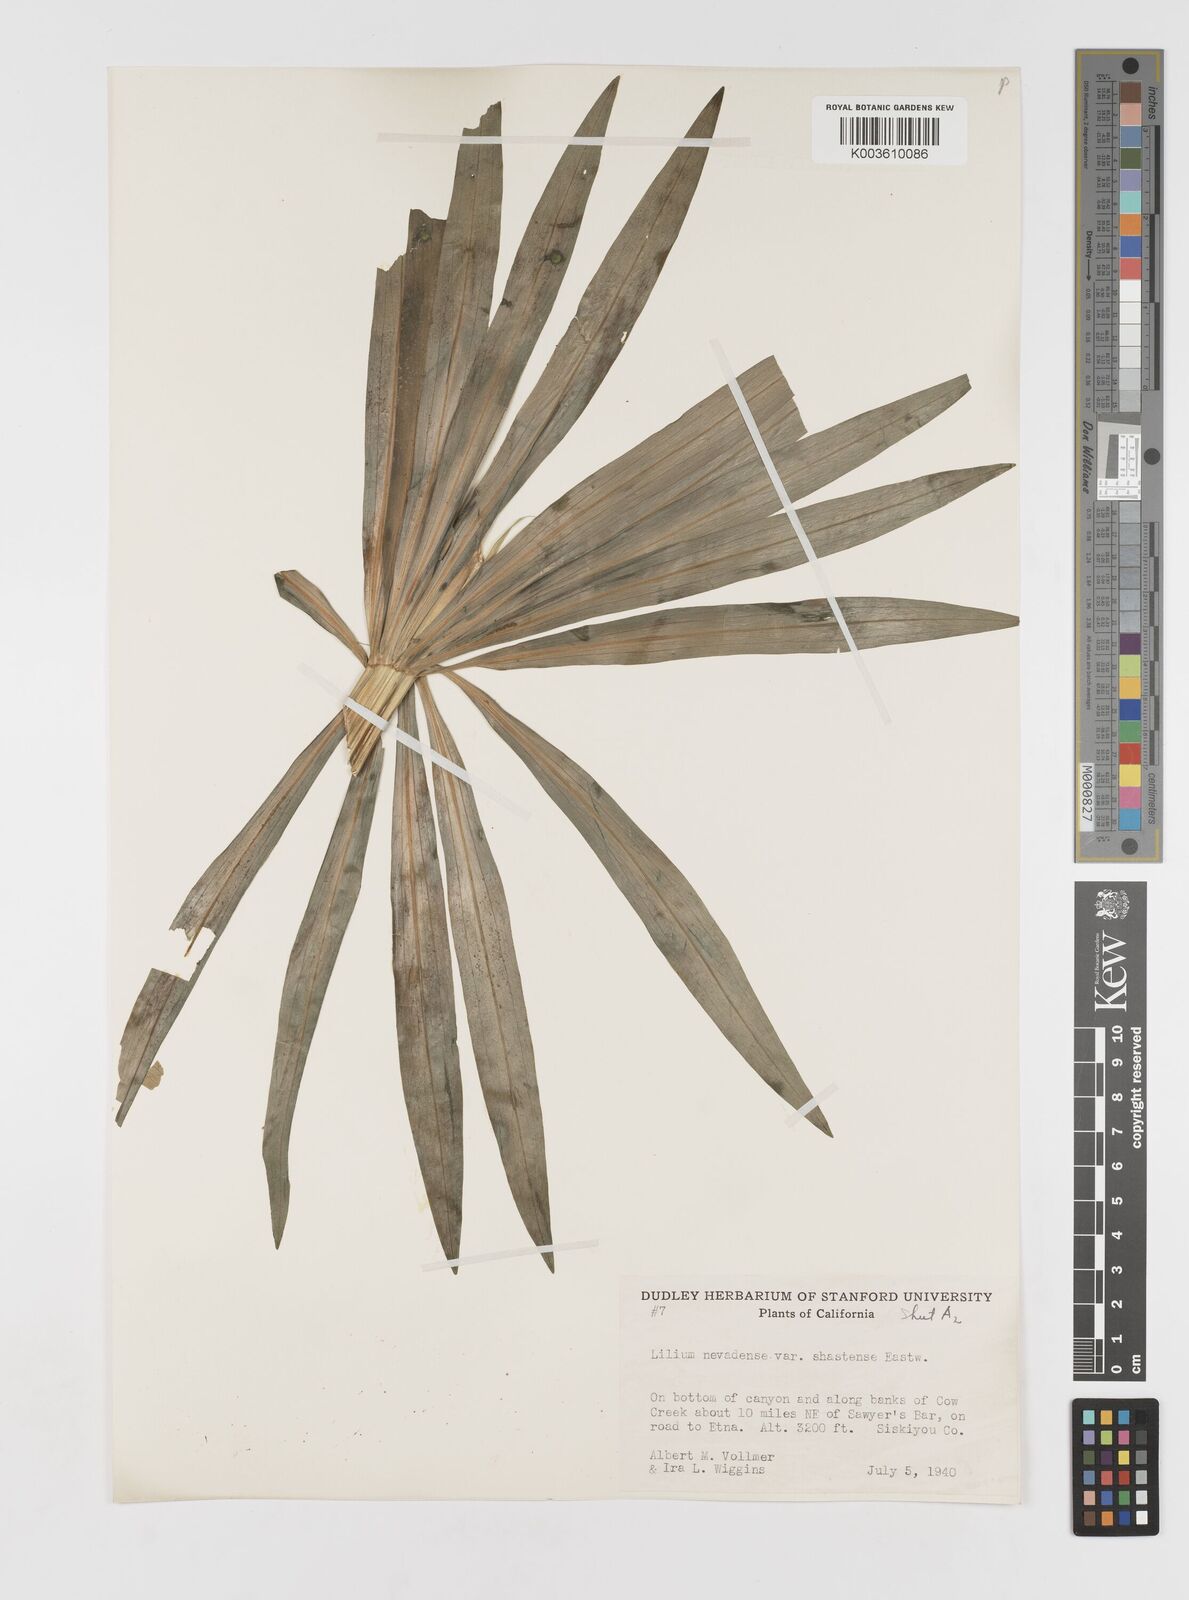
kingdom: Plantae
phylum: Tracheophyta
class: Liliopsida
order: Liliales
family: Liliaceae
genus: Lilium
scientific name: Lilium kelleyanum
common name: Kelley's lily
